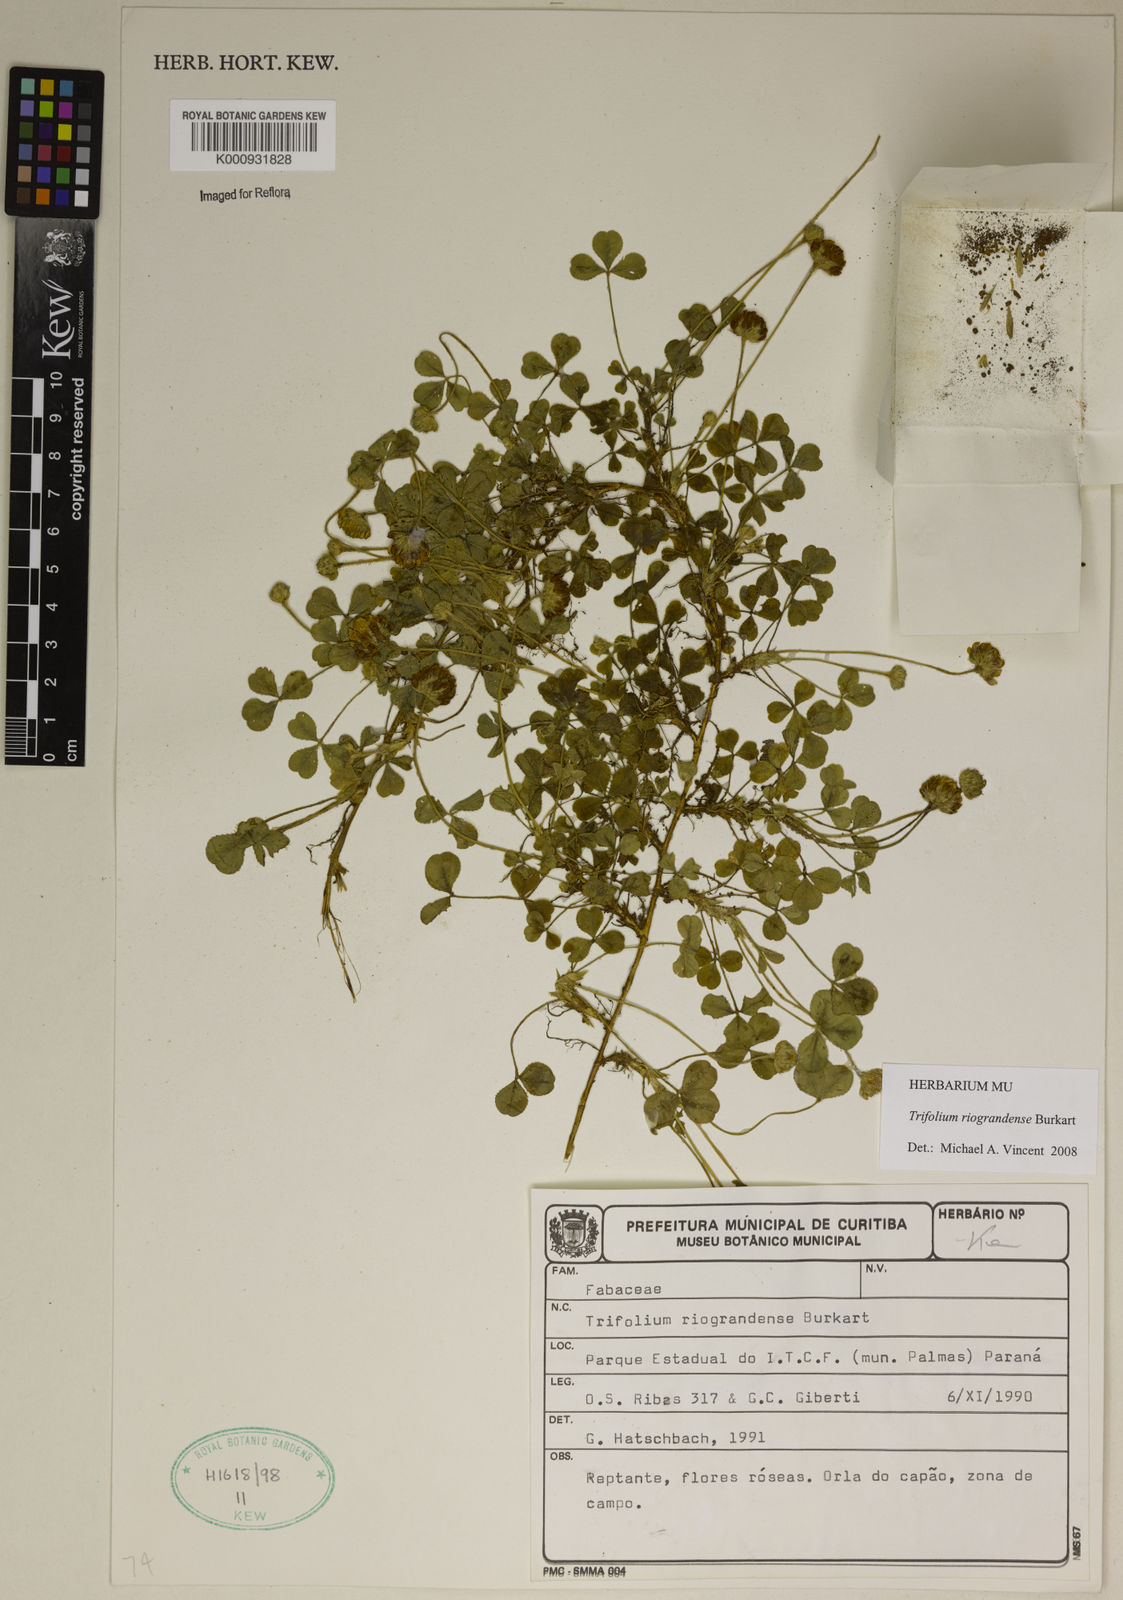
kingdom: Plantae
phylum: Tracheophyta
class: Magnoliopsida
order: Fabales
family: Fabaceae
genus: Trifolium
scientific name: Trifolium riograndense
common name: Rio grande clover
